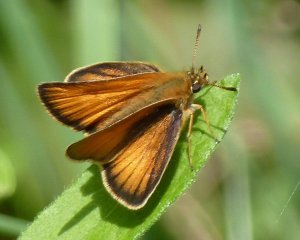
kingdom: Animalia
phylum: Arthropoda
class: Insecta
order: Lepidoptera
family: Hesperiidae
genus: Thymelicus
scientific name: Thymelicus lineola
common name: European Skipper
